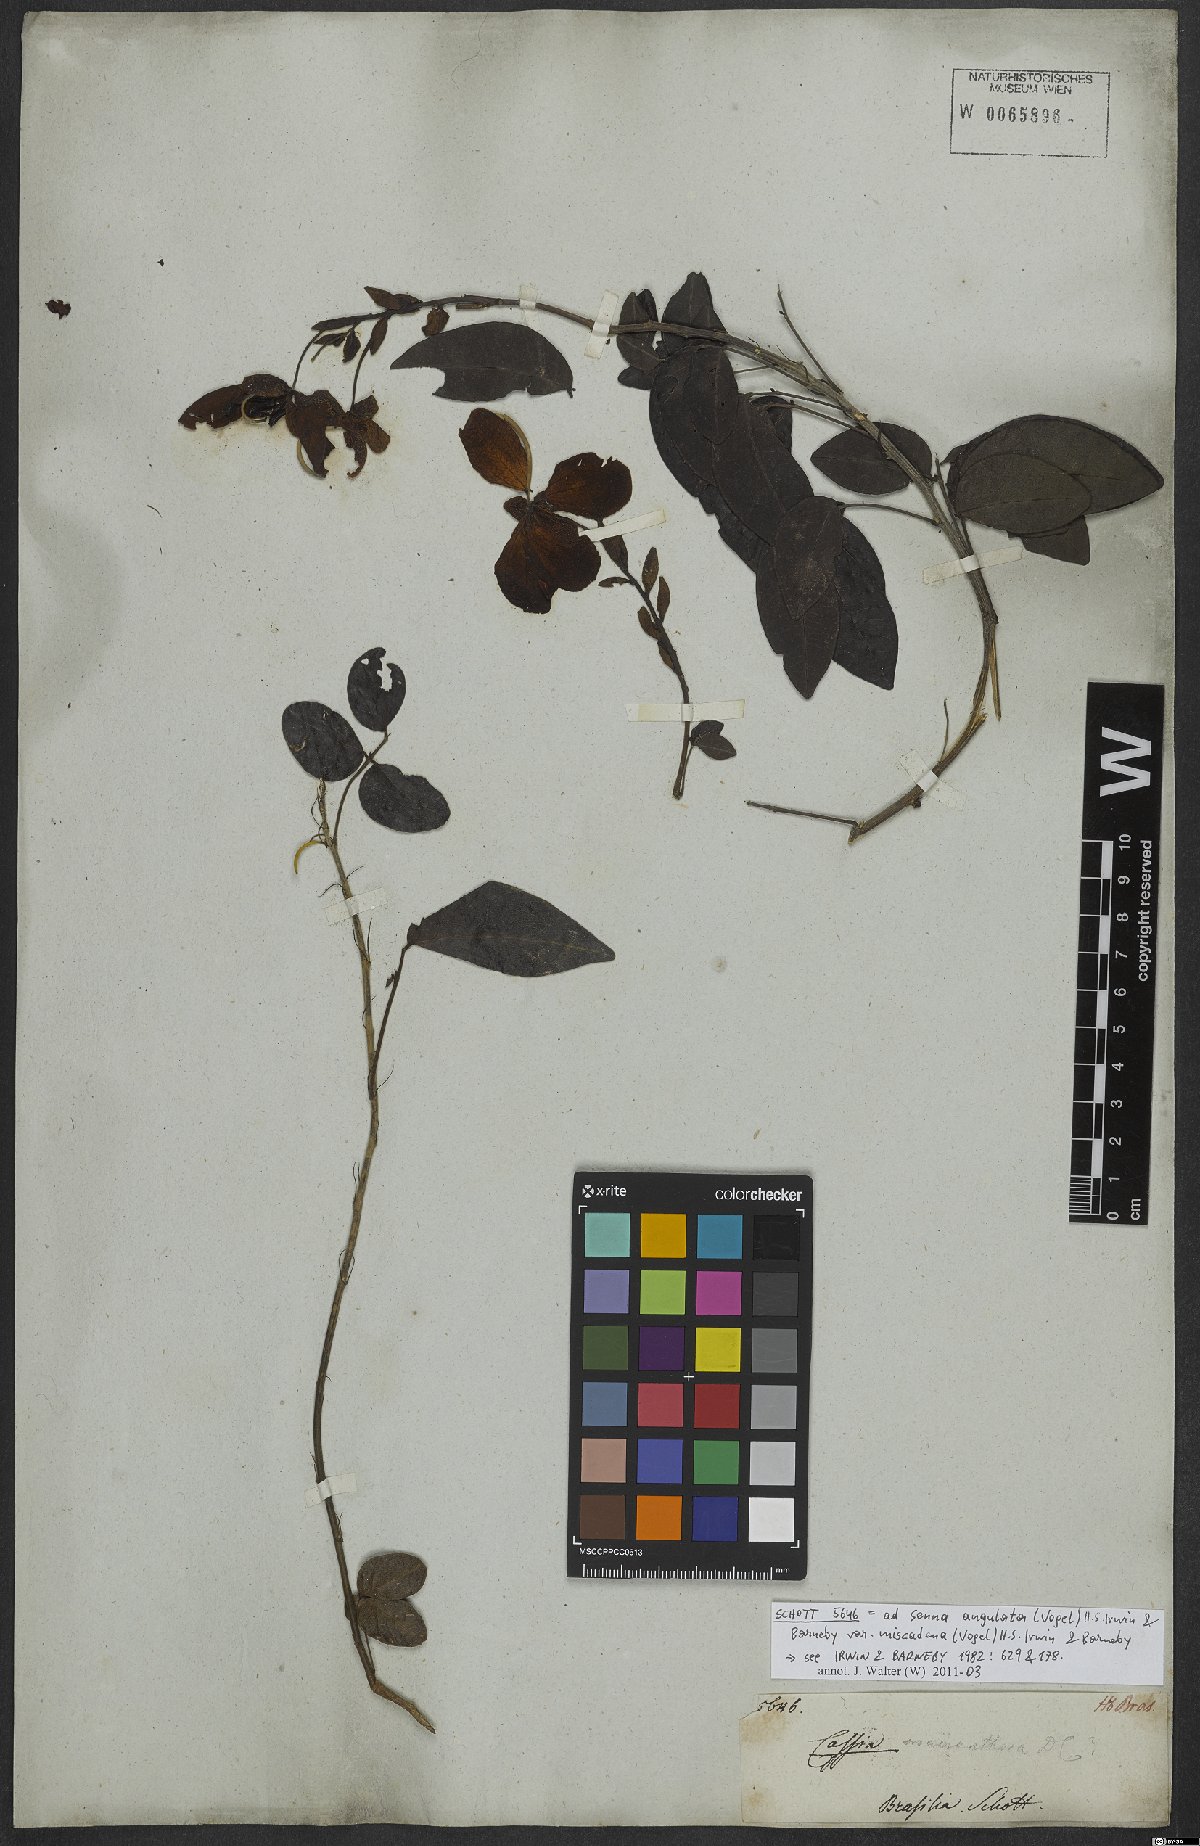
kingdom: Plantae
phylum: Tracheophyta
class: Magnoliopsida
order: Fabales
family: Fabaceae
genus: Senna
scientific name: Senna chrysocarpa
